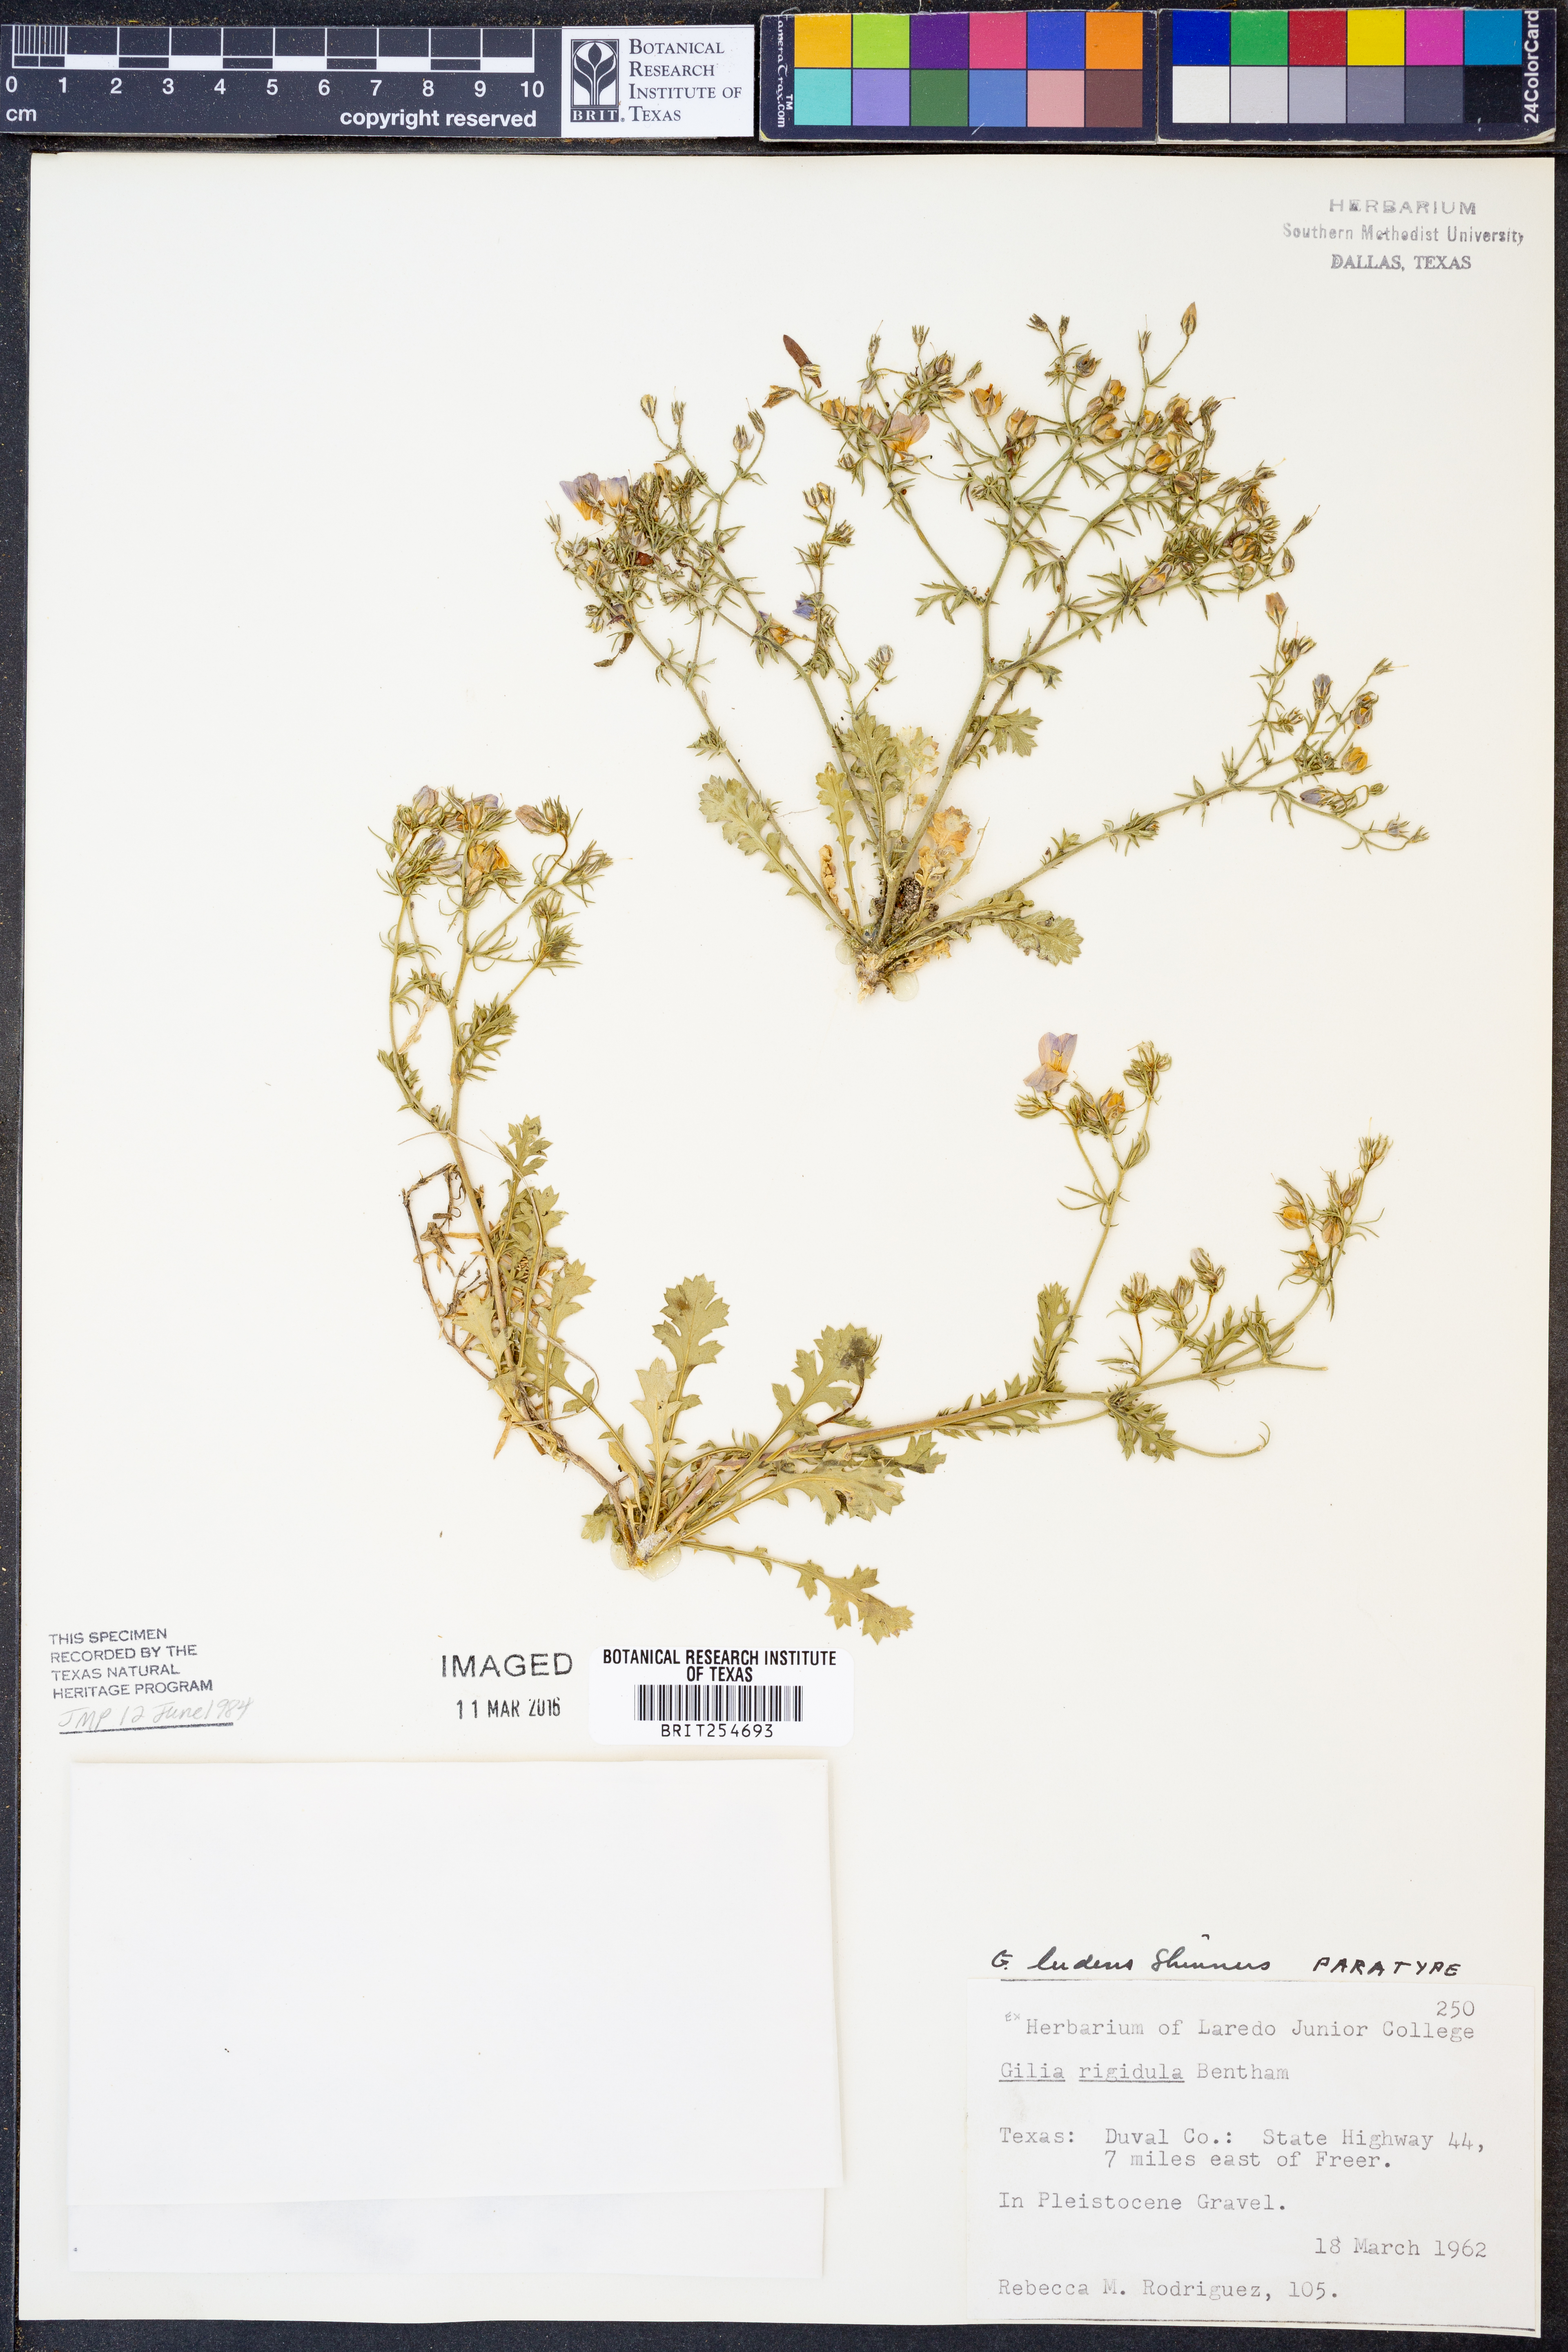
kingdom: Plantae
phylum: Tracheophyta
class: Magnoliopsida
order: Ericales
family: Polemoniaceae
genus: Giliastrum
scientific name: Giliastrum ludens
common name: Rio grande gilia
